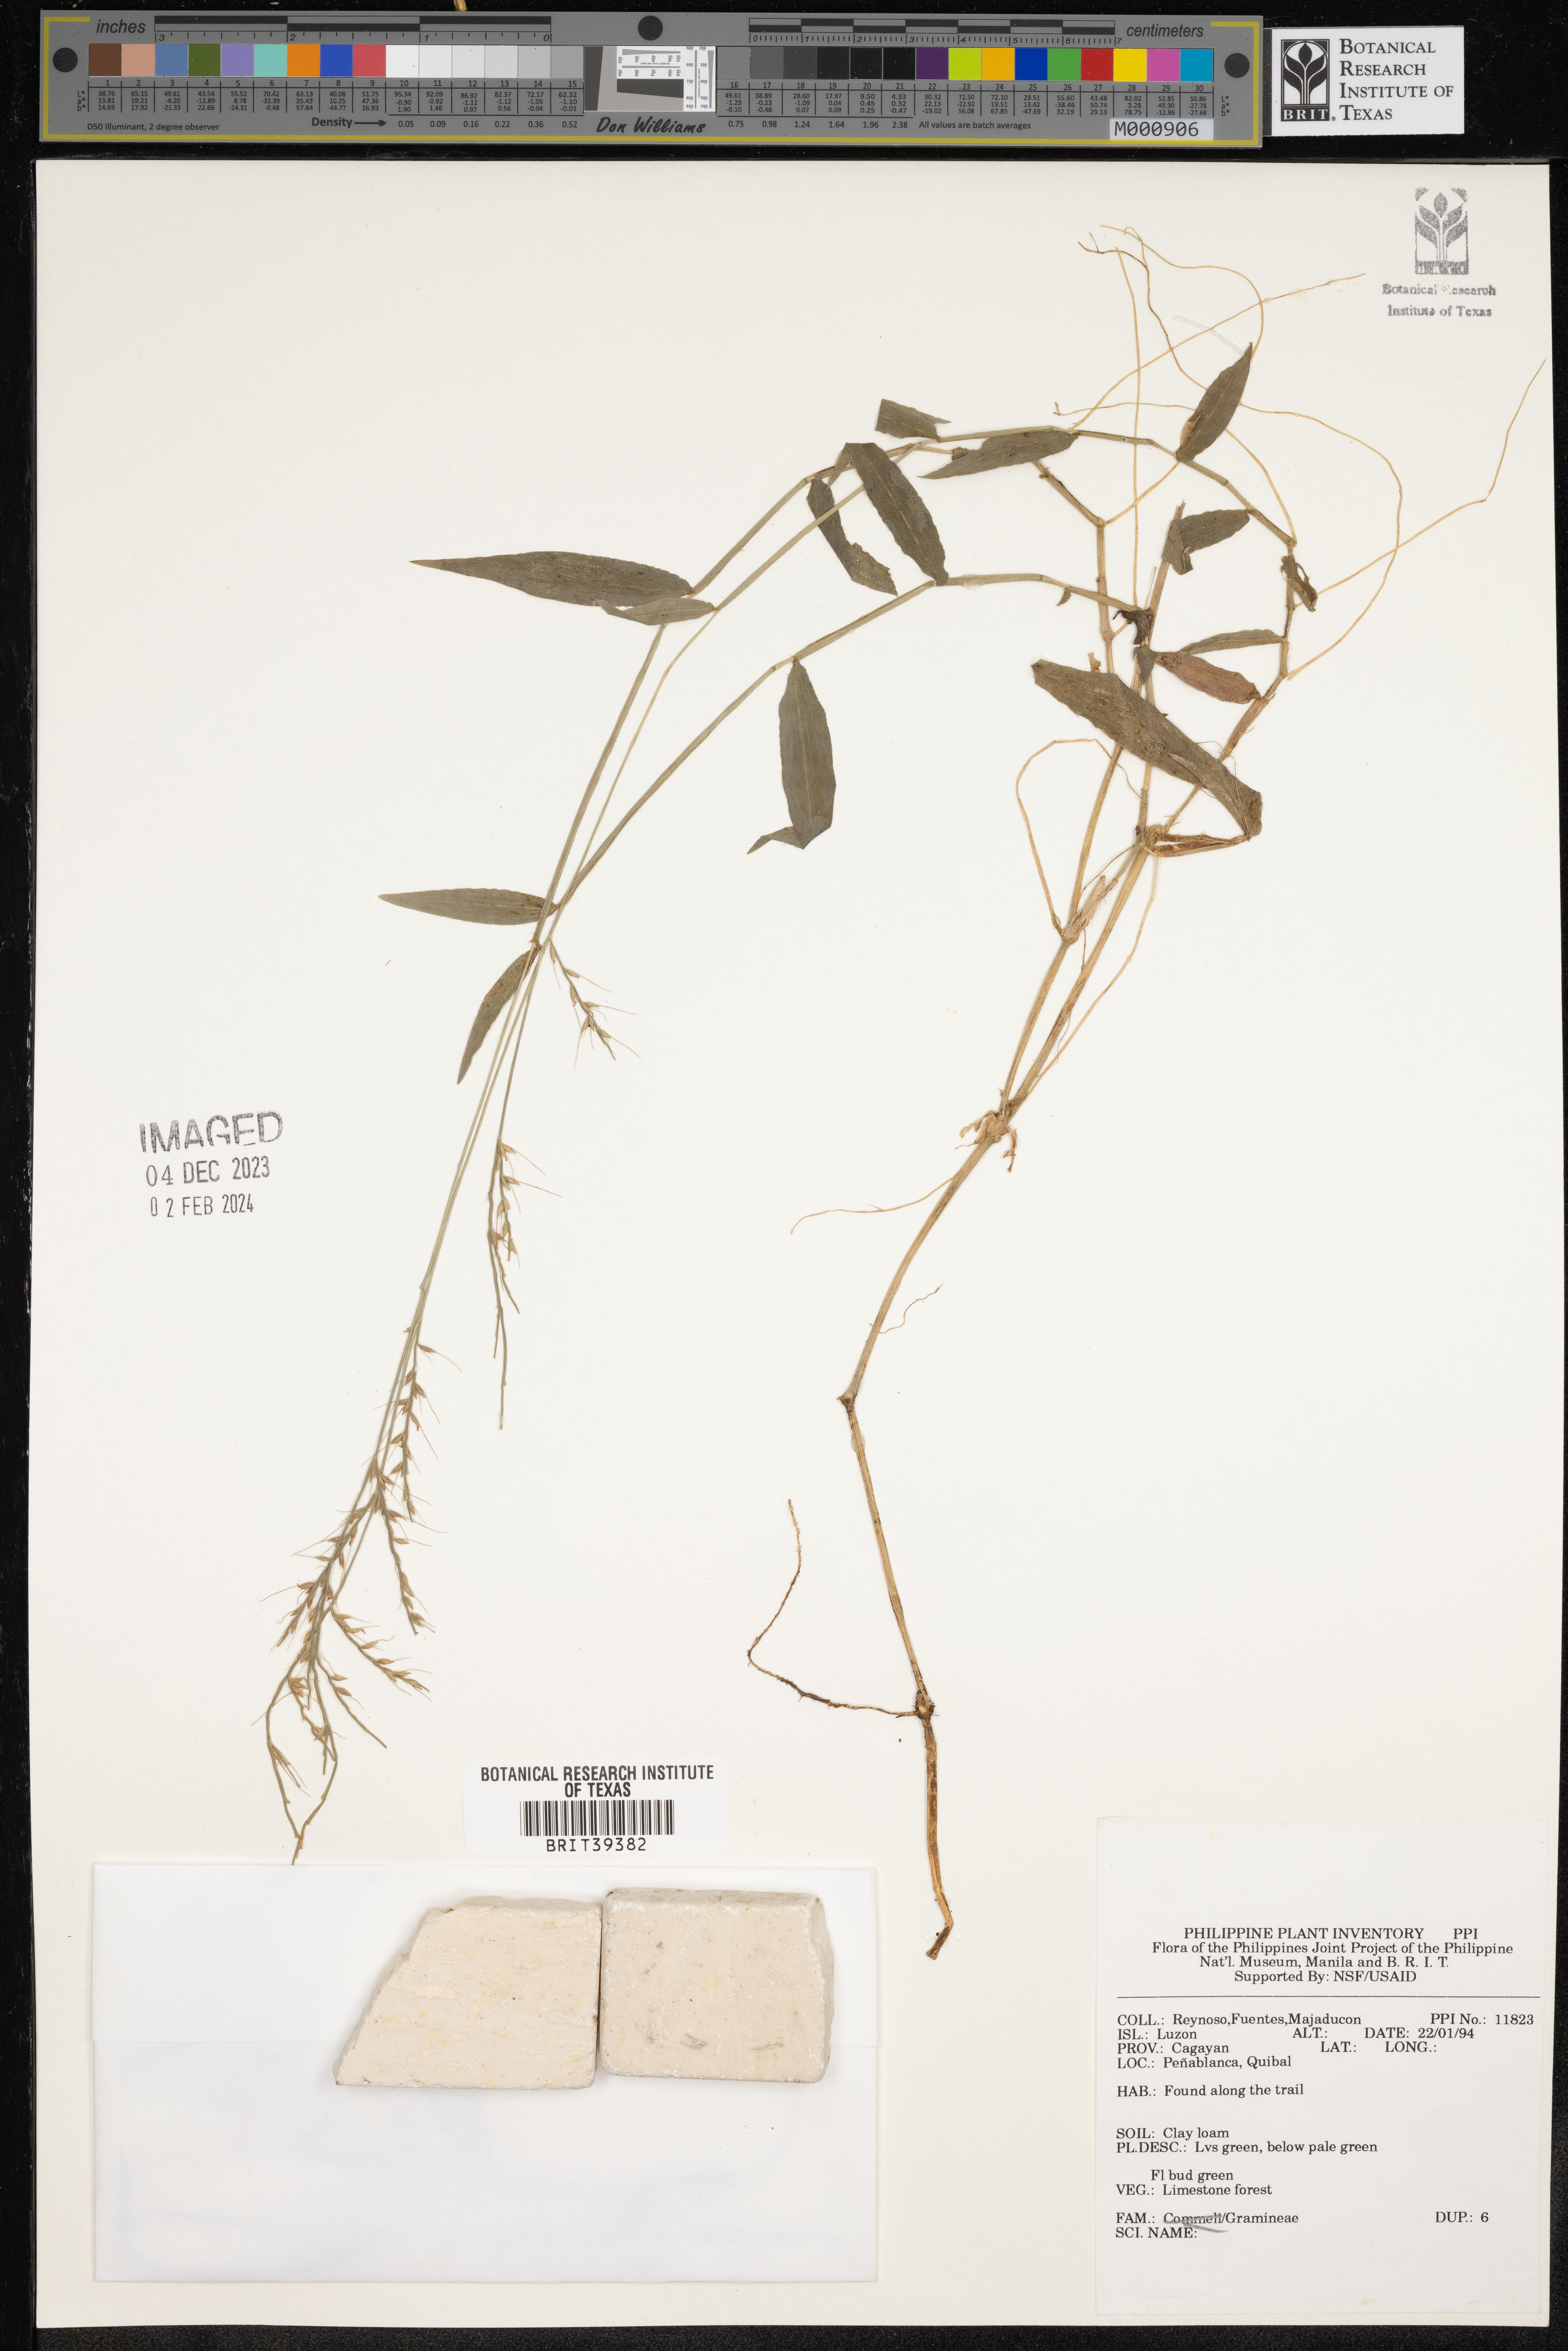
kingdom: Plantae
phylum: Tracheophyta
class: Liliopsida
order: Poales
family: Poaceae
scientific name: Poaceae
